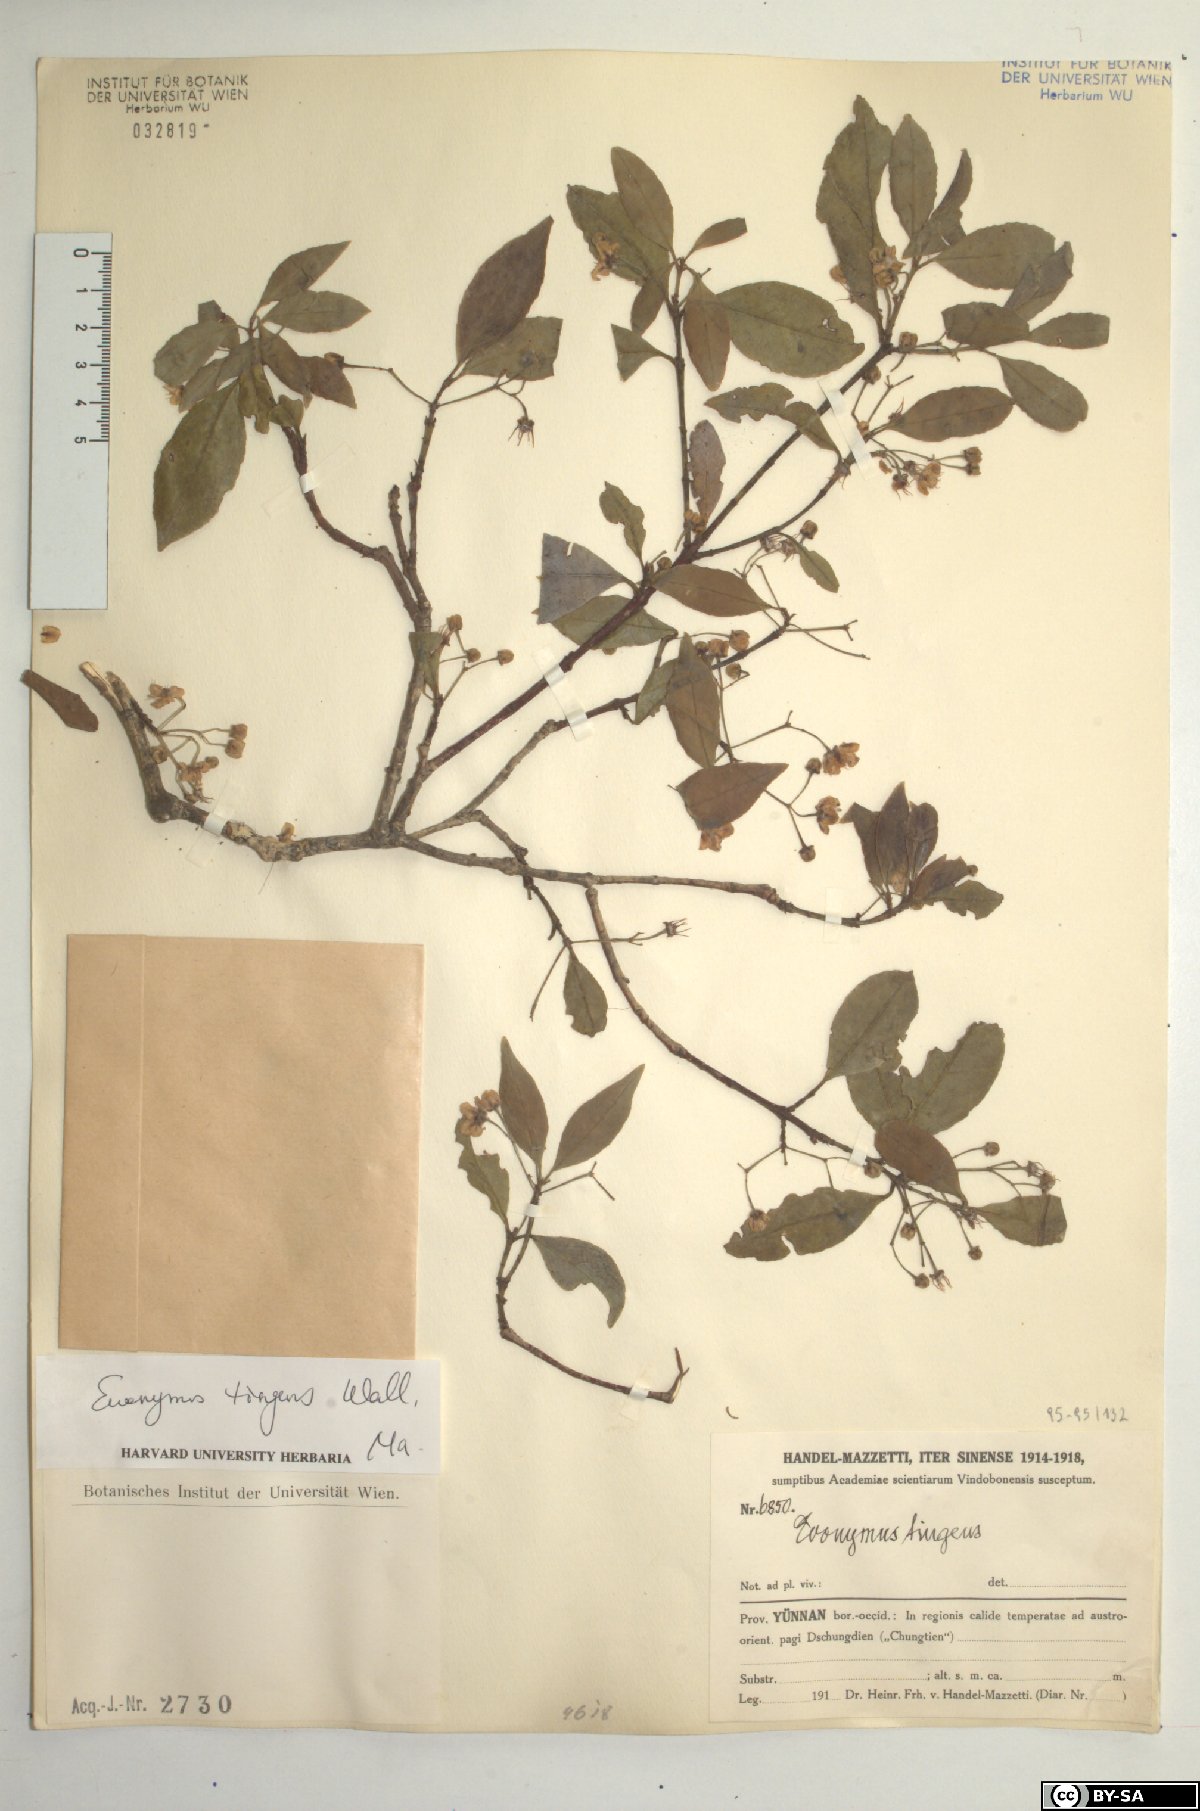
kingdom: Plantae
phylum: Tracheophyta
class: Magnoliopsida
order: Celastrales
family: Celastraceae
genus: Euonymus
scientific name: Euonymus tingens
